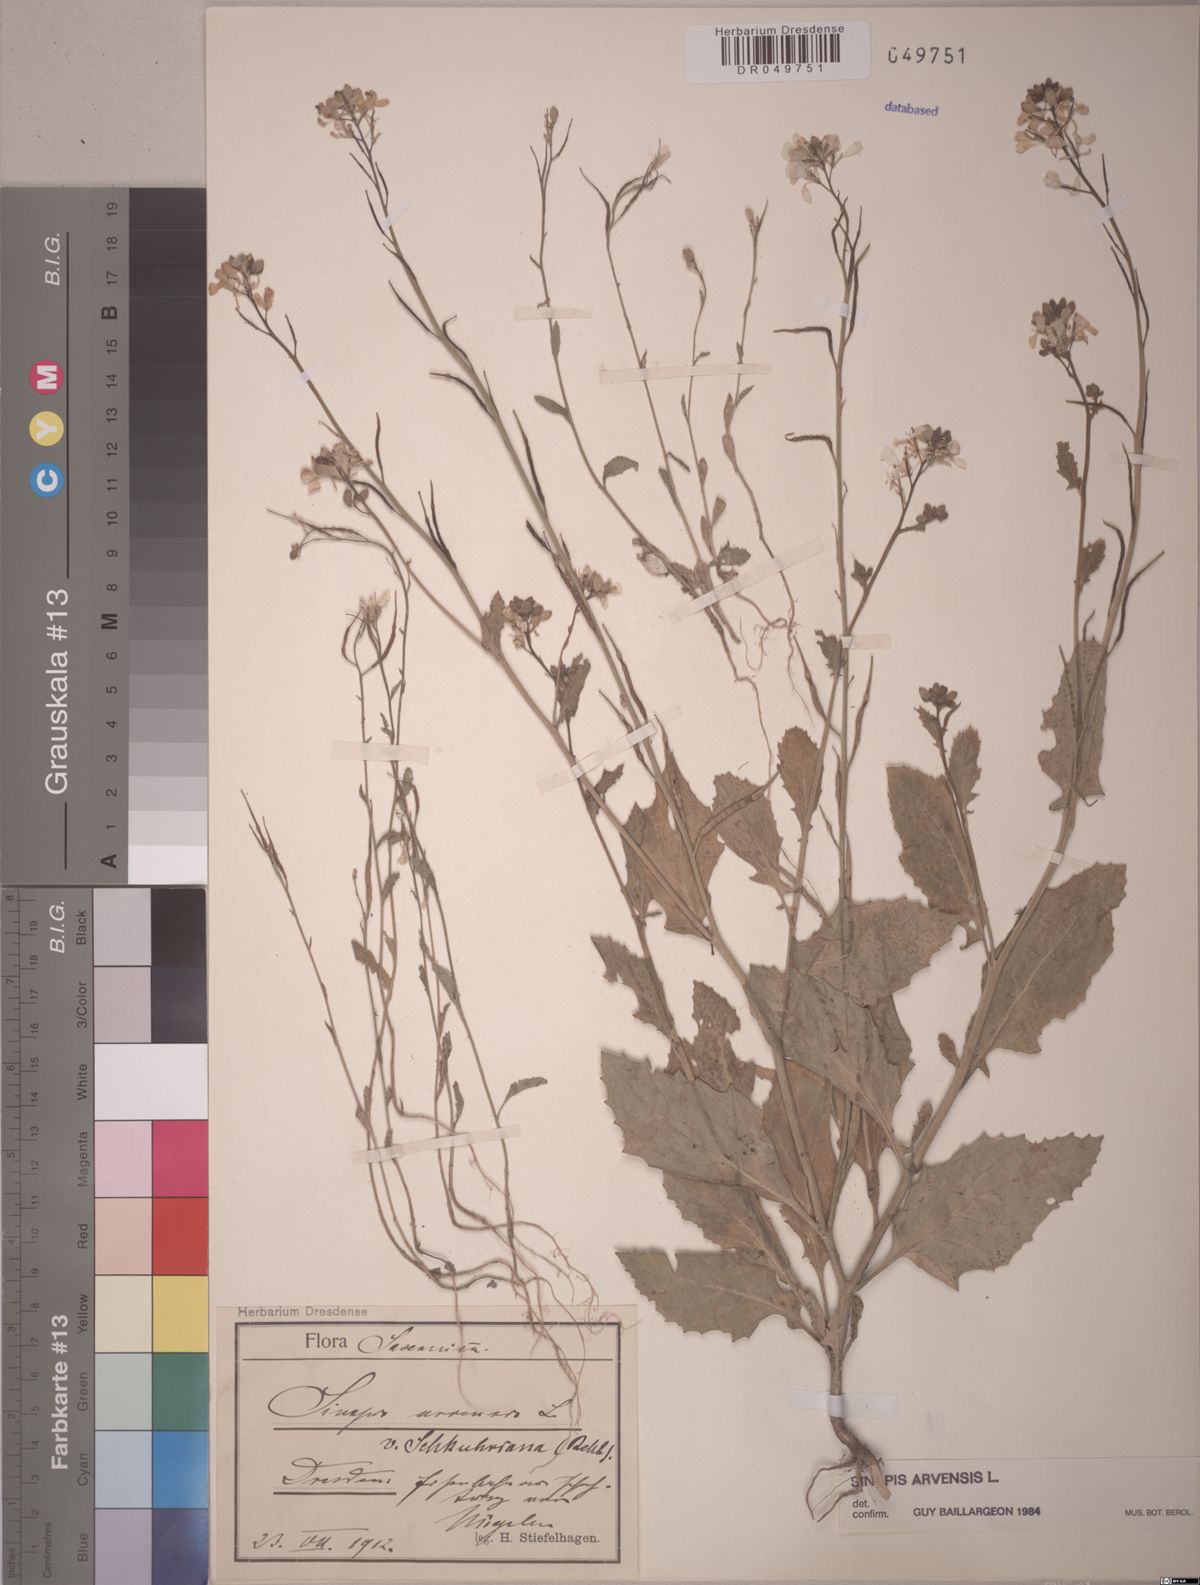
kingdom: Plantae
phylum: Tracheophyta
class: Magnoliopsida
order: Brassicales
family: Brassicaceae
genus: Sinapis
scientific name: Sinapis arvensis
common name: Charlock
